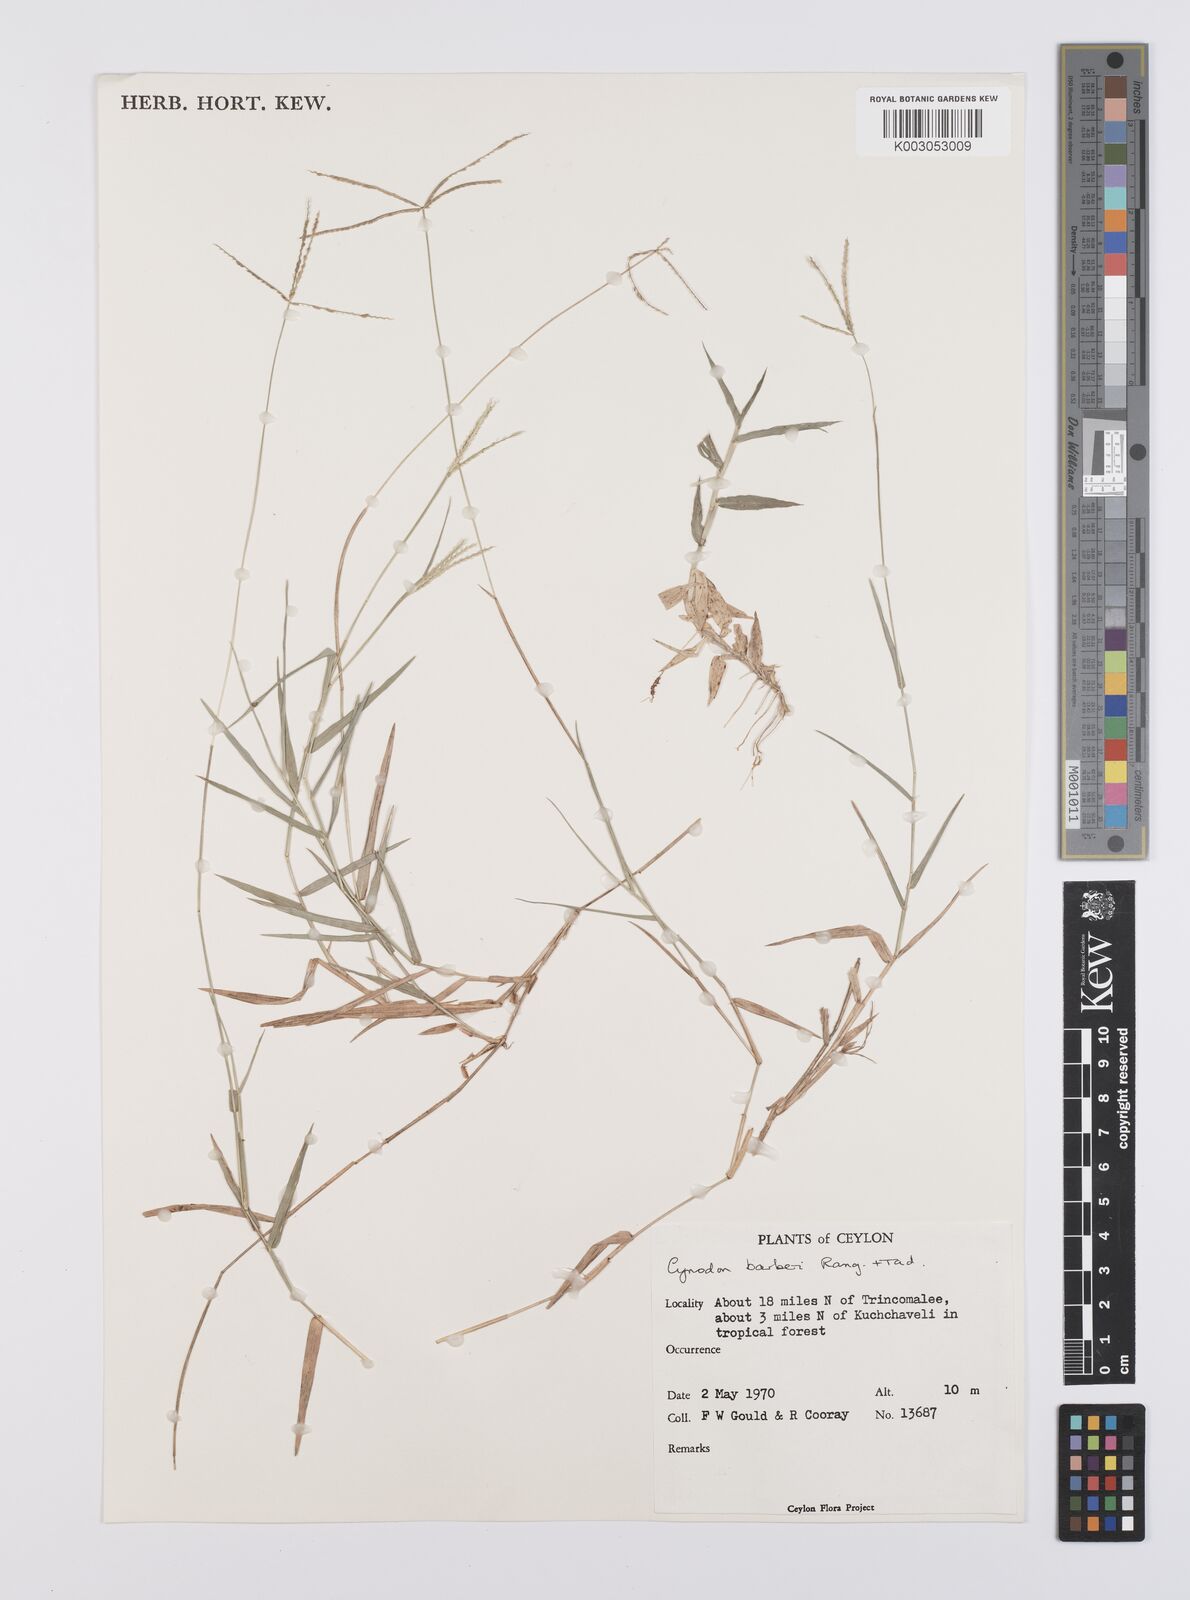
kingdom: Plantae
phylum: Tracheophyta
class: Liliopsida
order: Poales
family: Poaceae
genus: Cynodon
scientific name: Cynodon barberi
